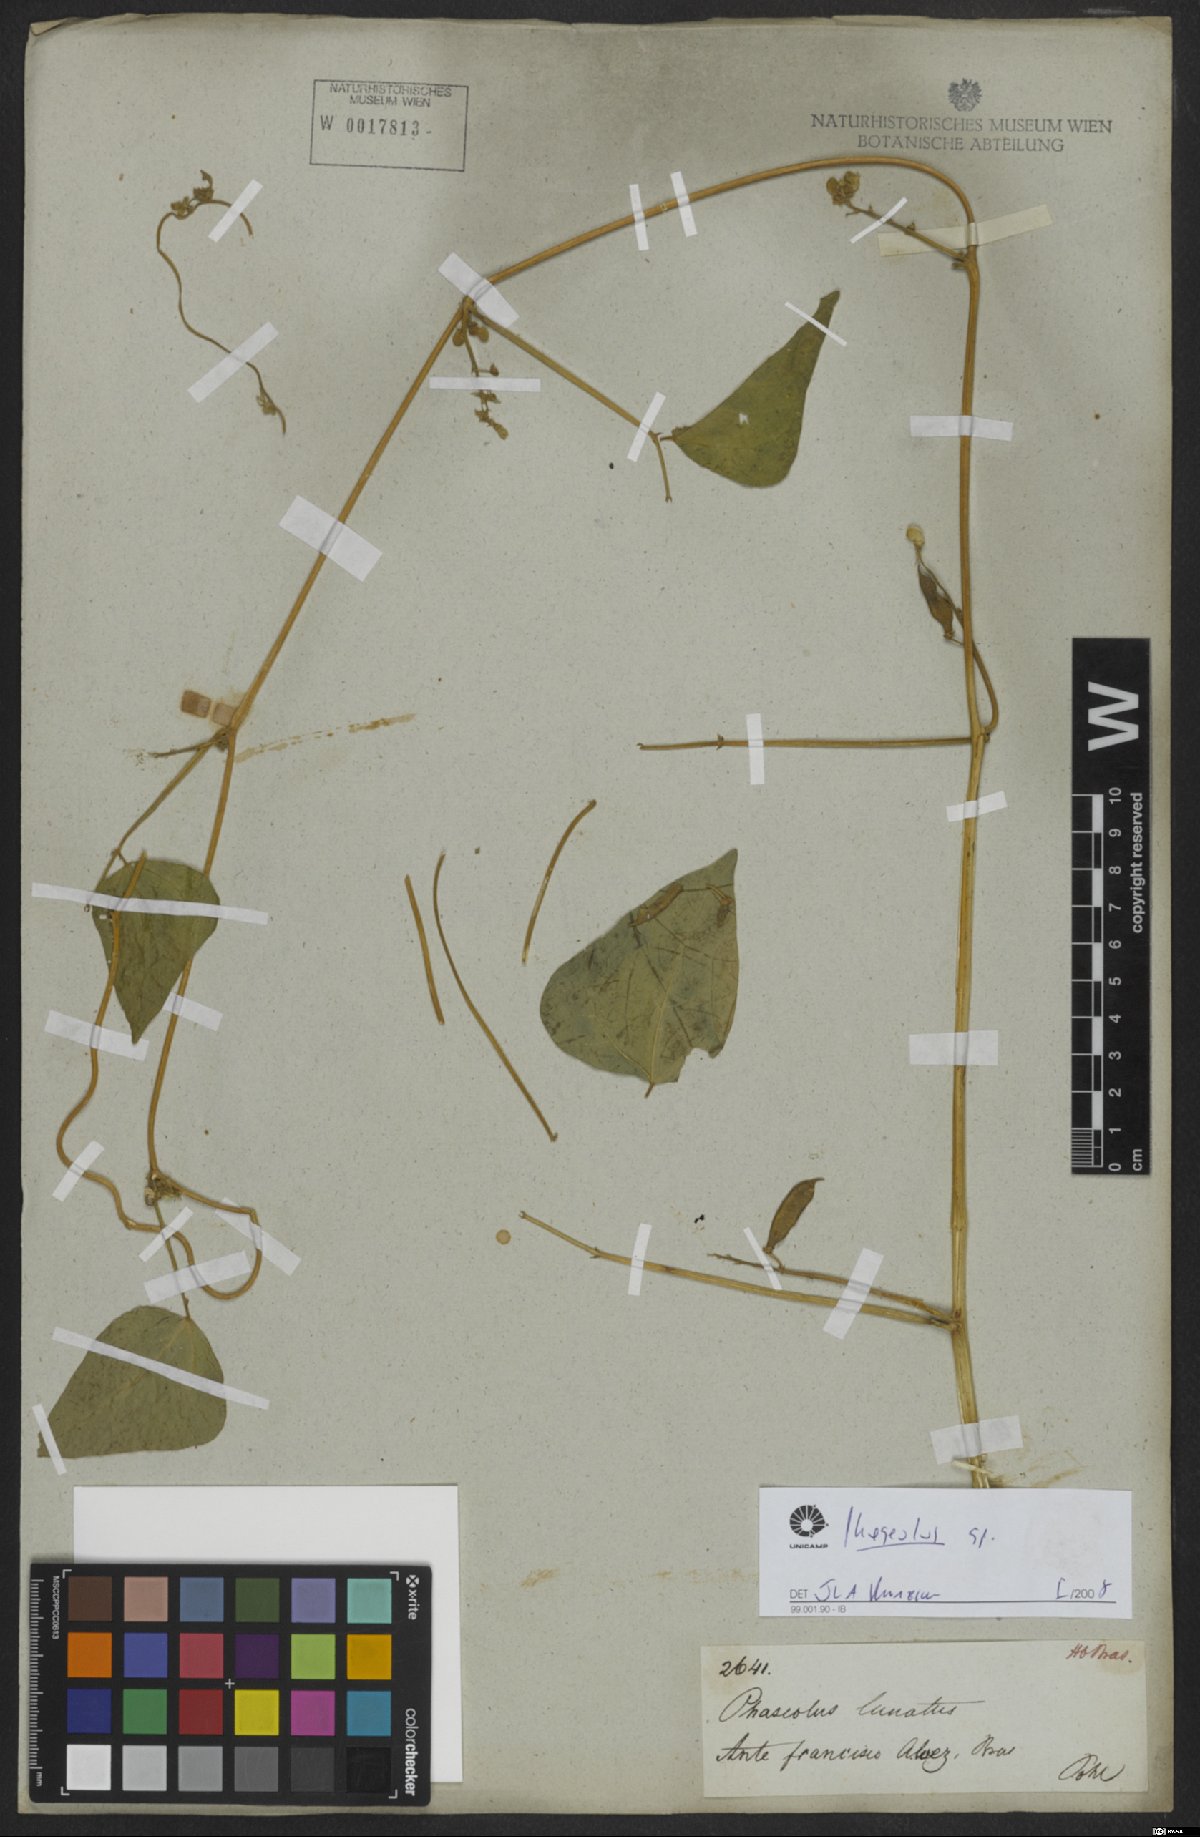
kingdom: Plantae
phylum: Tracheophyta
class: Magnoliopsida
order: Fabales
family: Fabaceae
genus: Phaseolus
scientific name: Phaseolus
